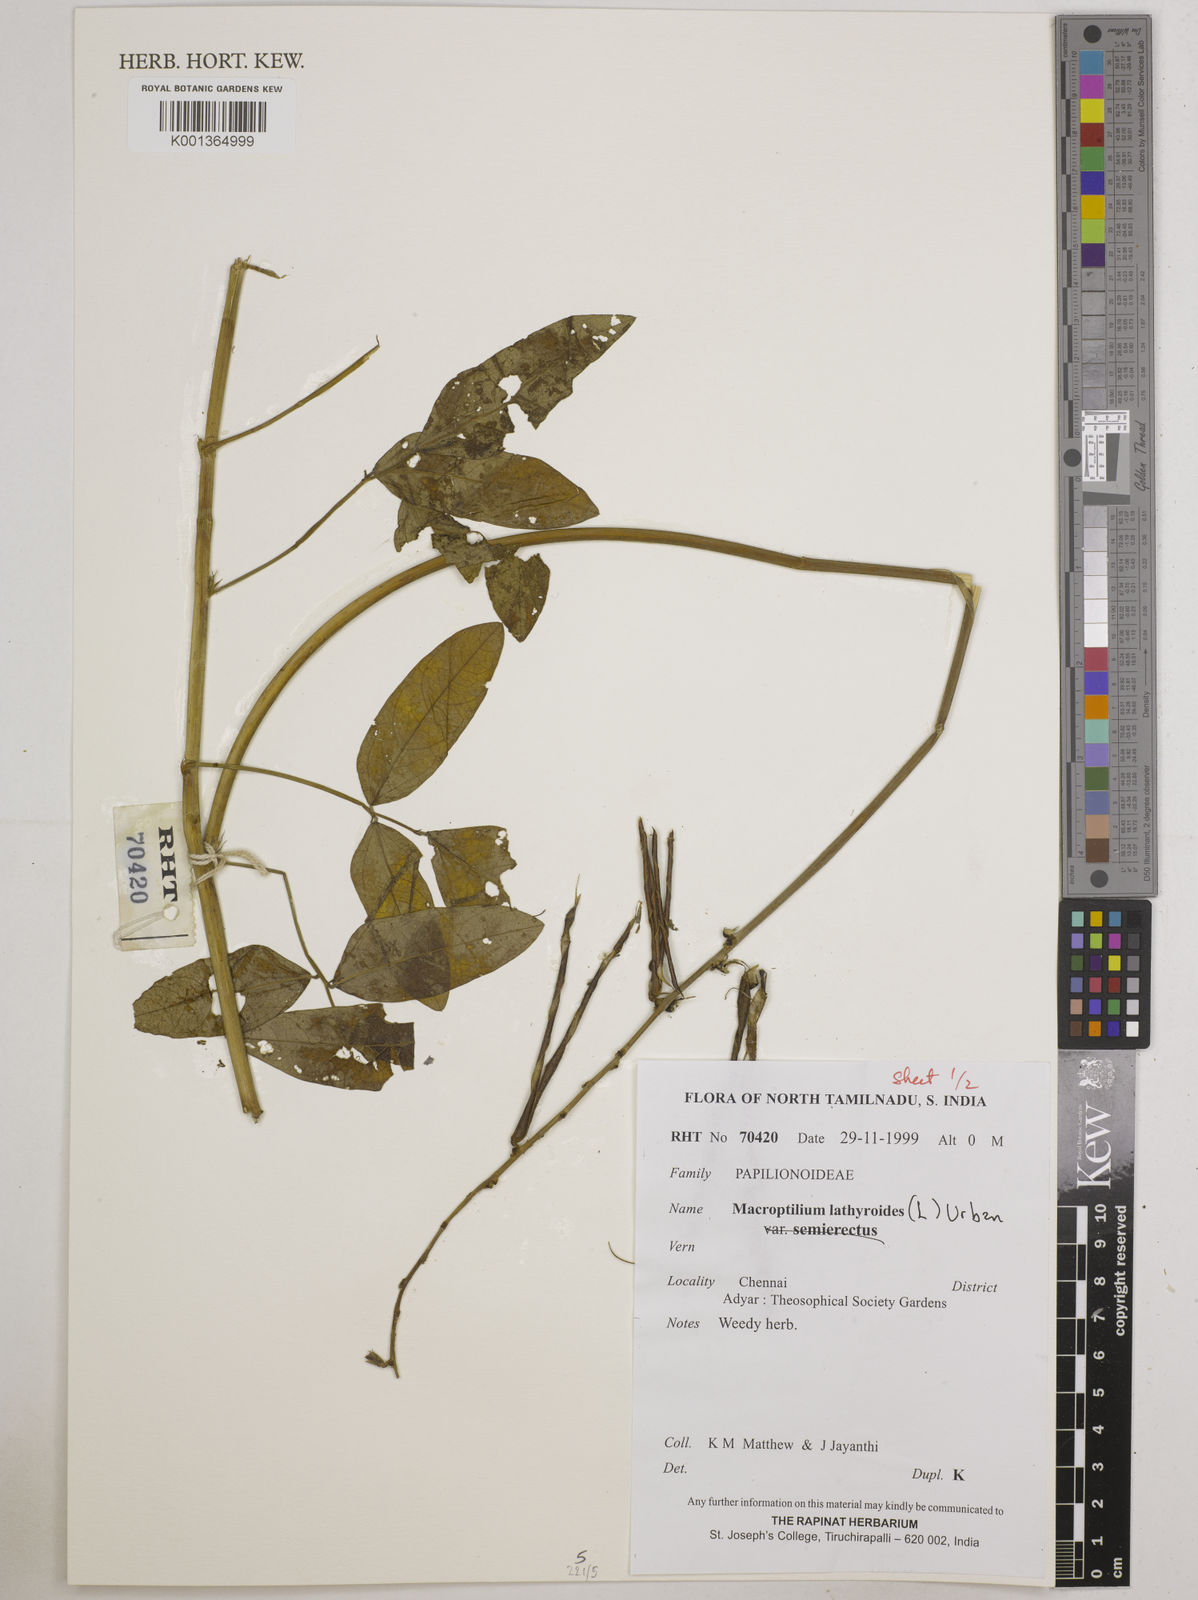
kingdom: Plantae
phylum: Tracheophyta
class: Magnoliopsida
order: Fabales
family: Fabaceae
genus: Macroptilium
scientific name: Macroptilium lathyroides
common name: Wild bushbean
